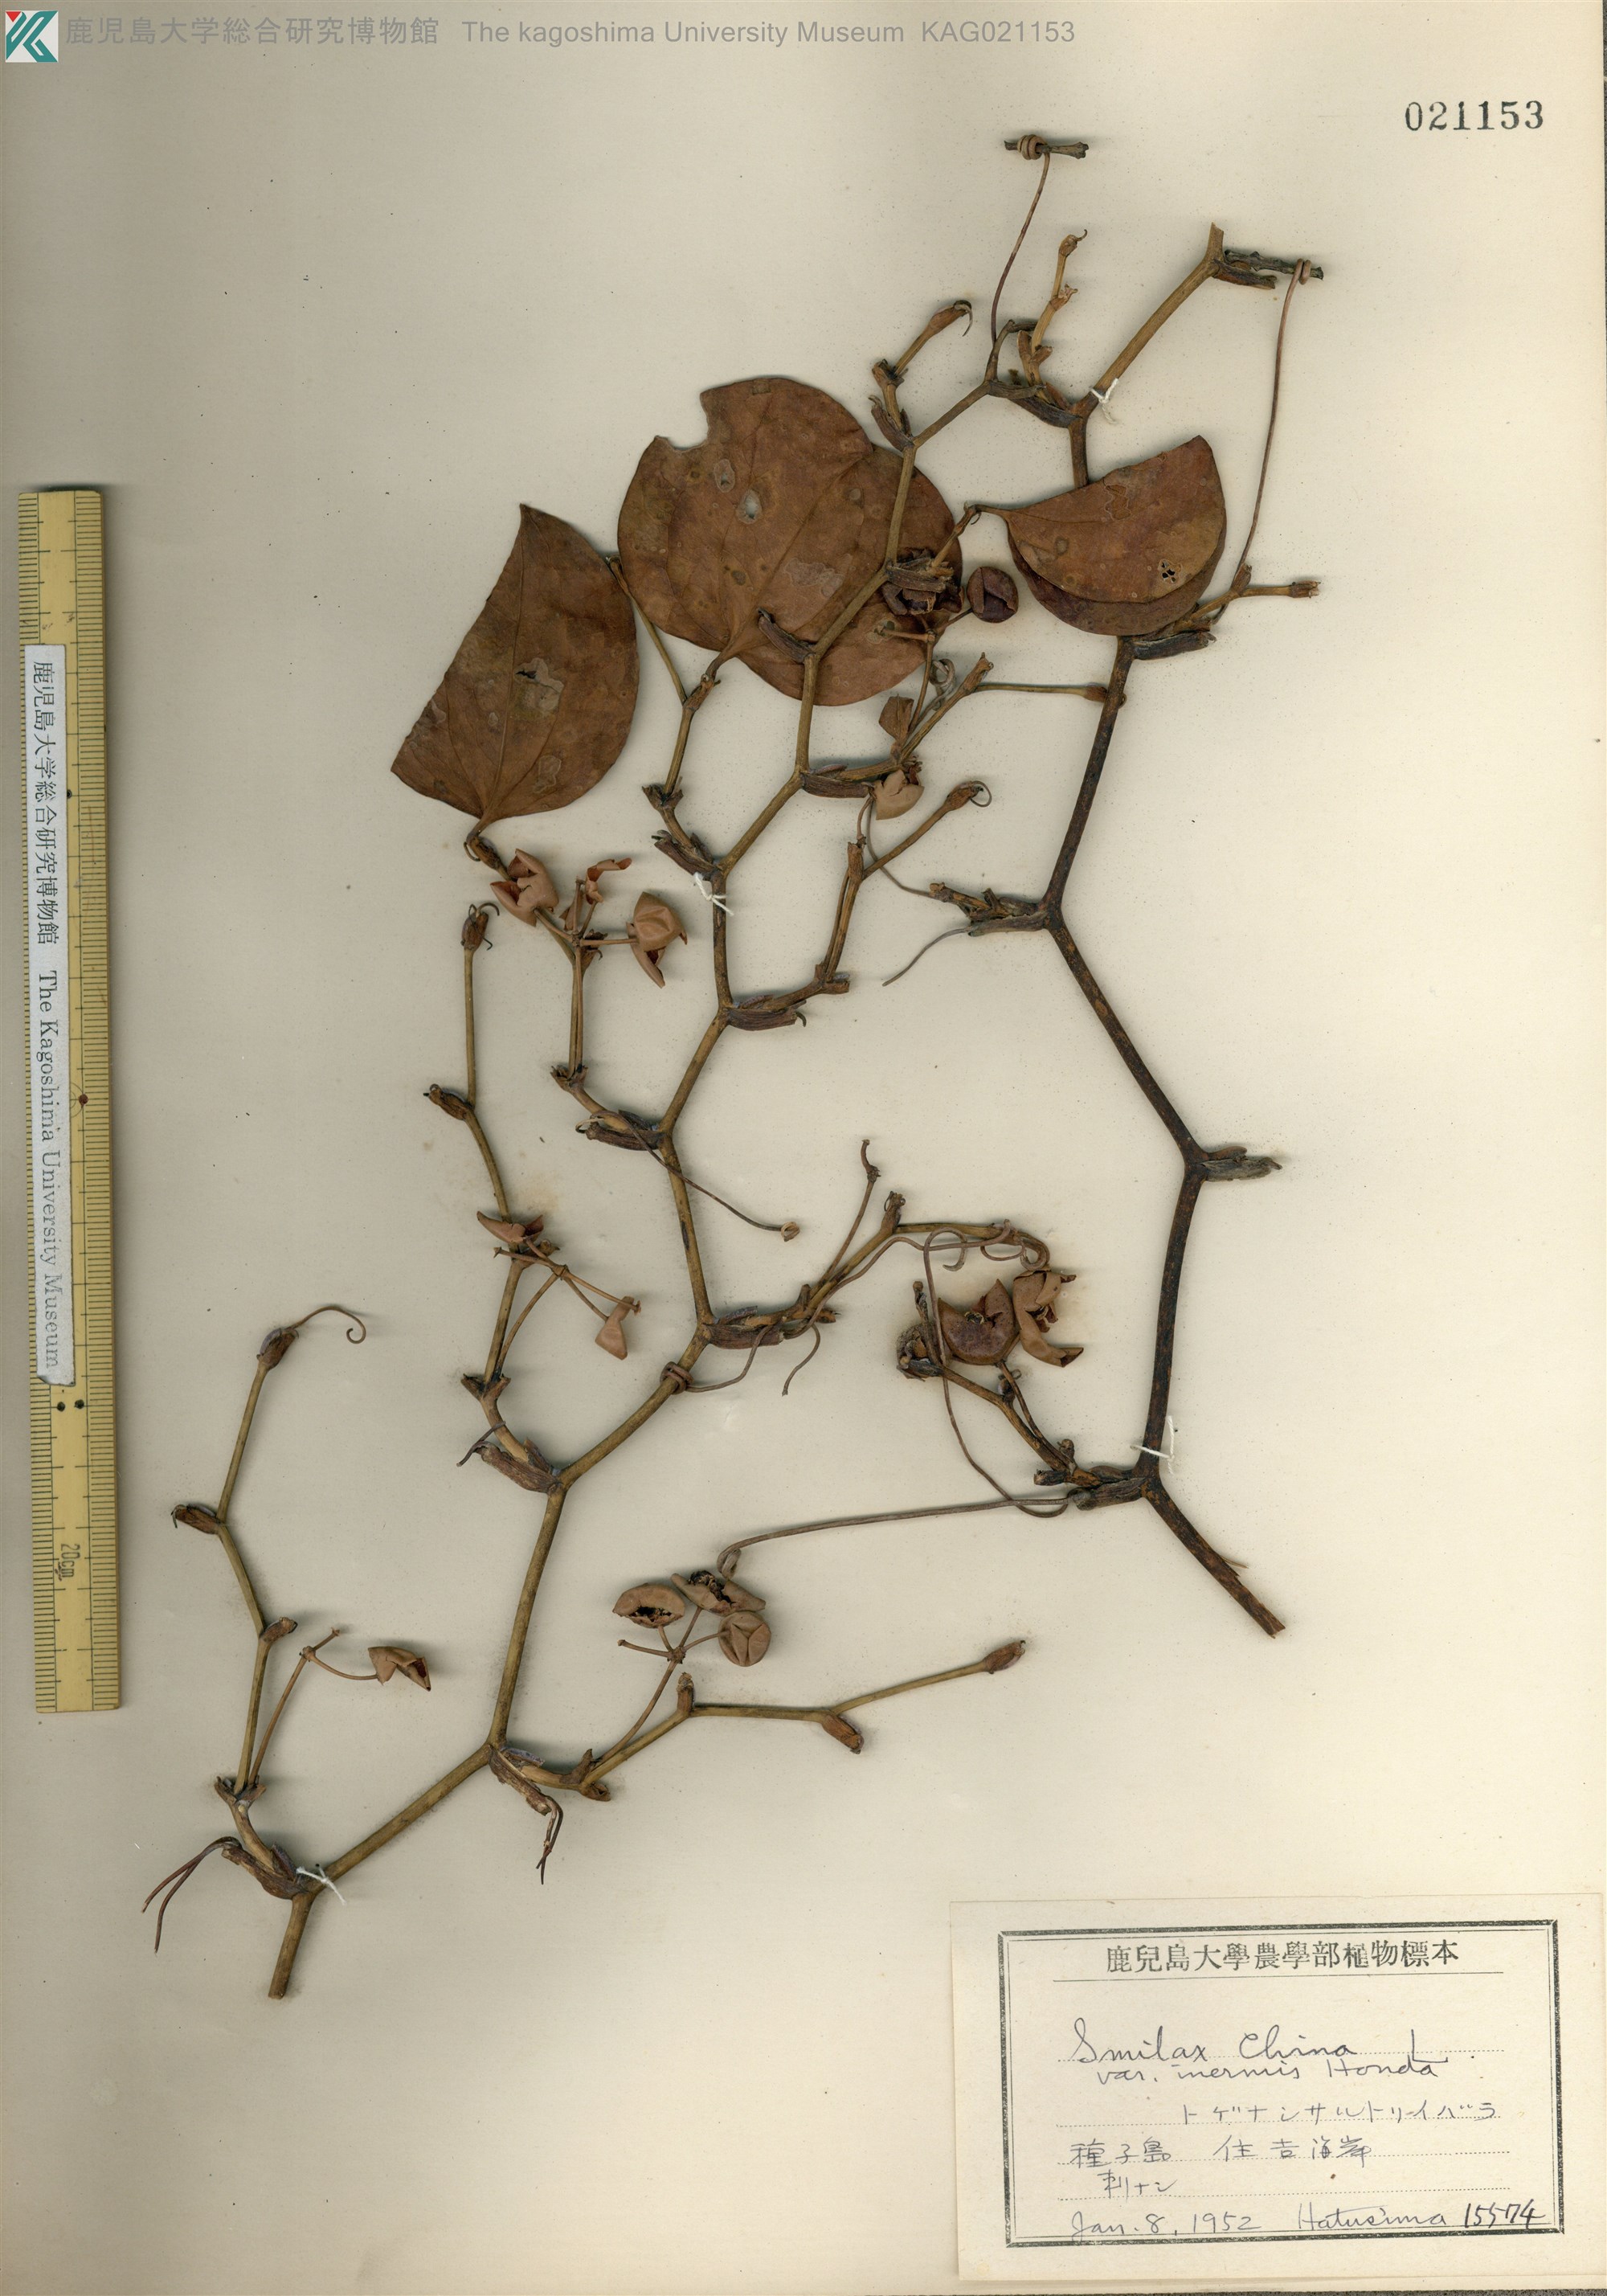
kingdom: Plantae
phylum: Tracheophyta
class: Liliopsida
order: Liliales
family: Smilacaceae
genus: Smilax
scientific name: Smilax china
